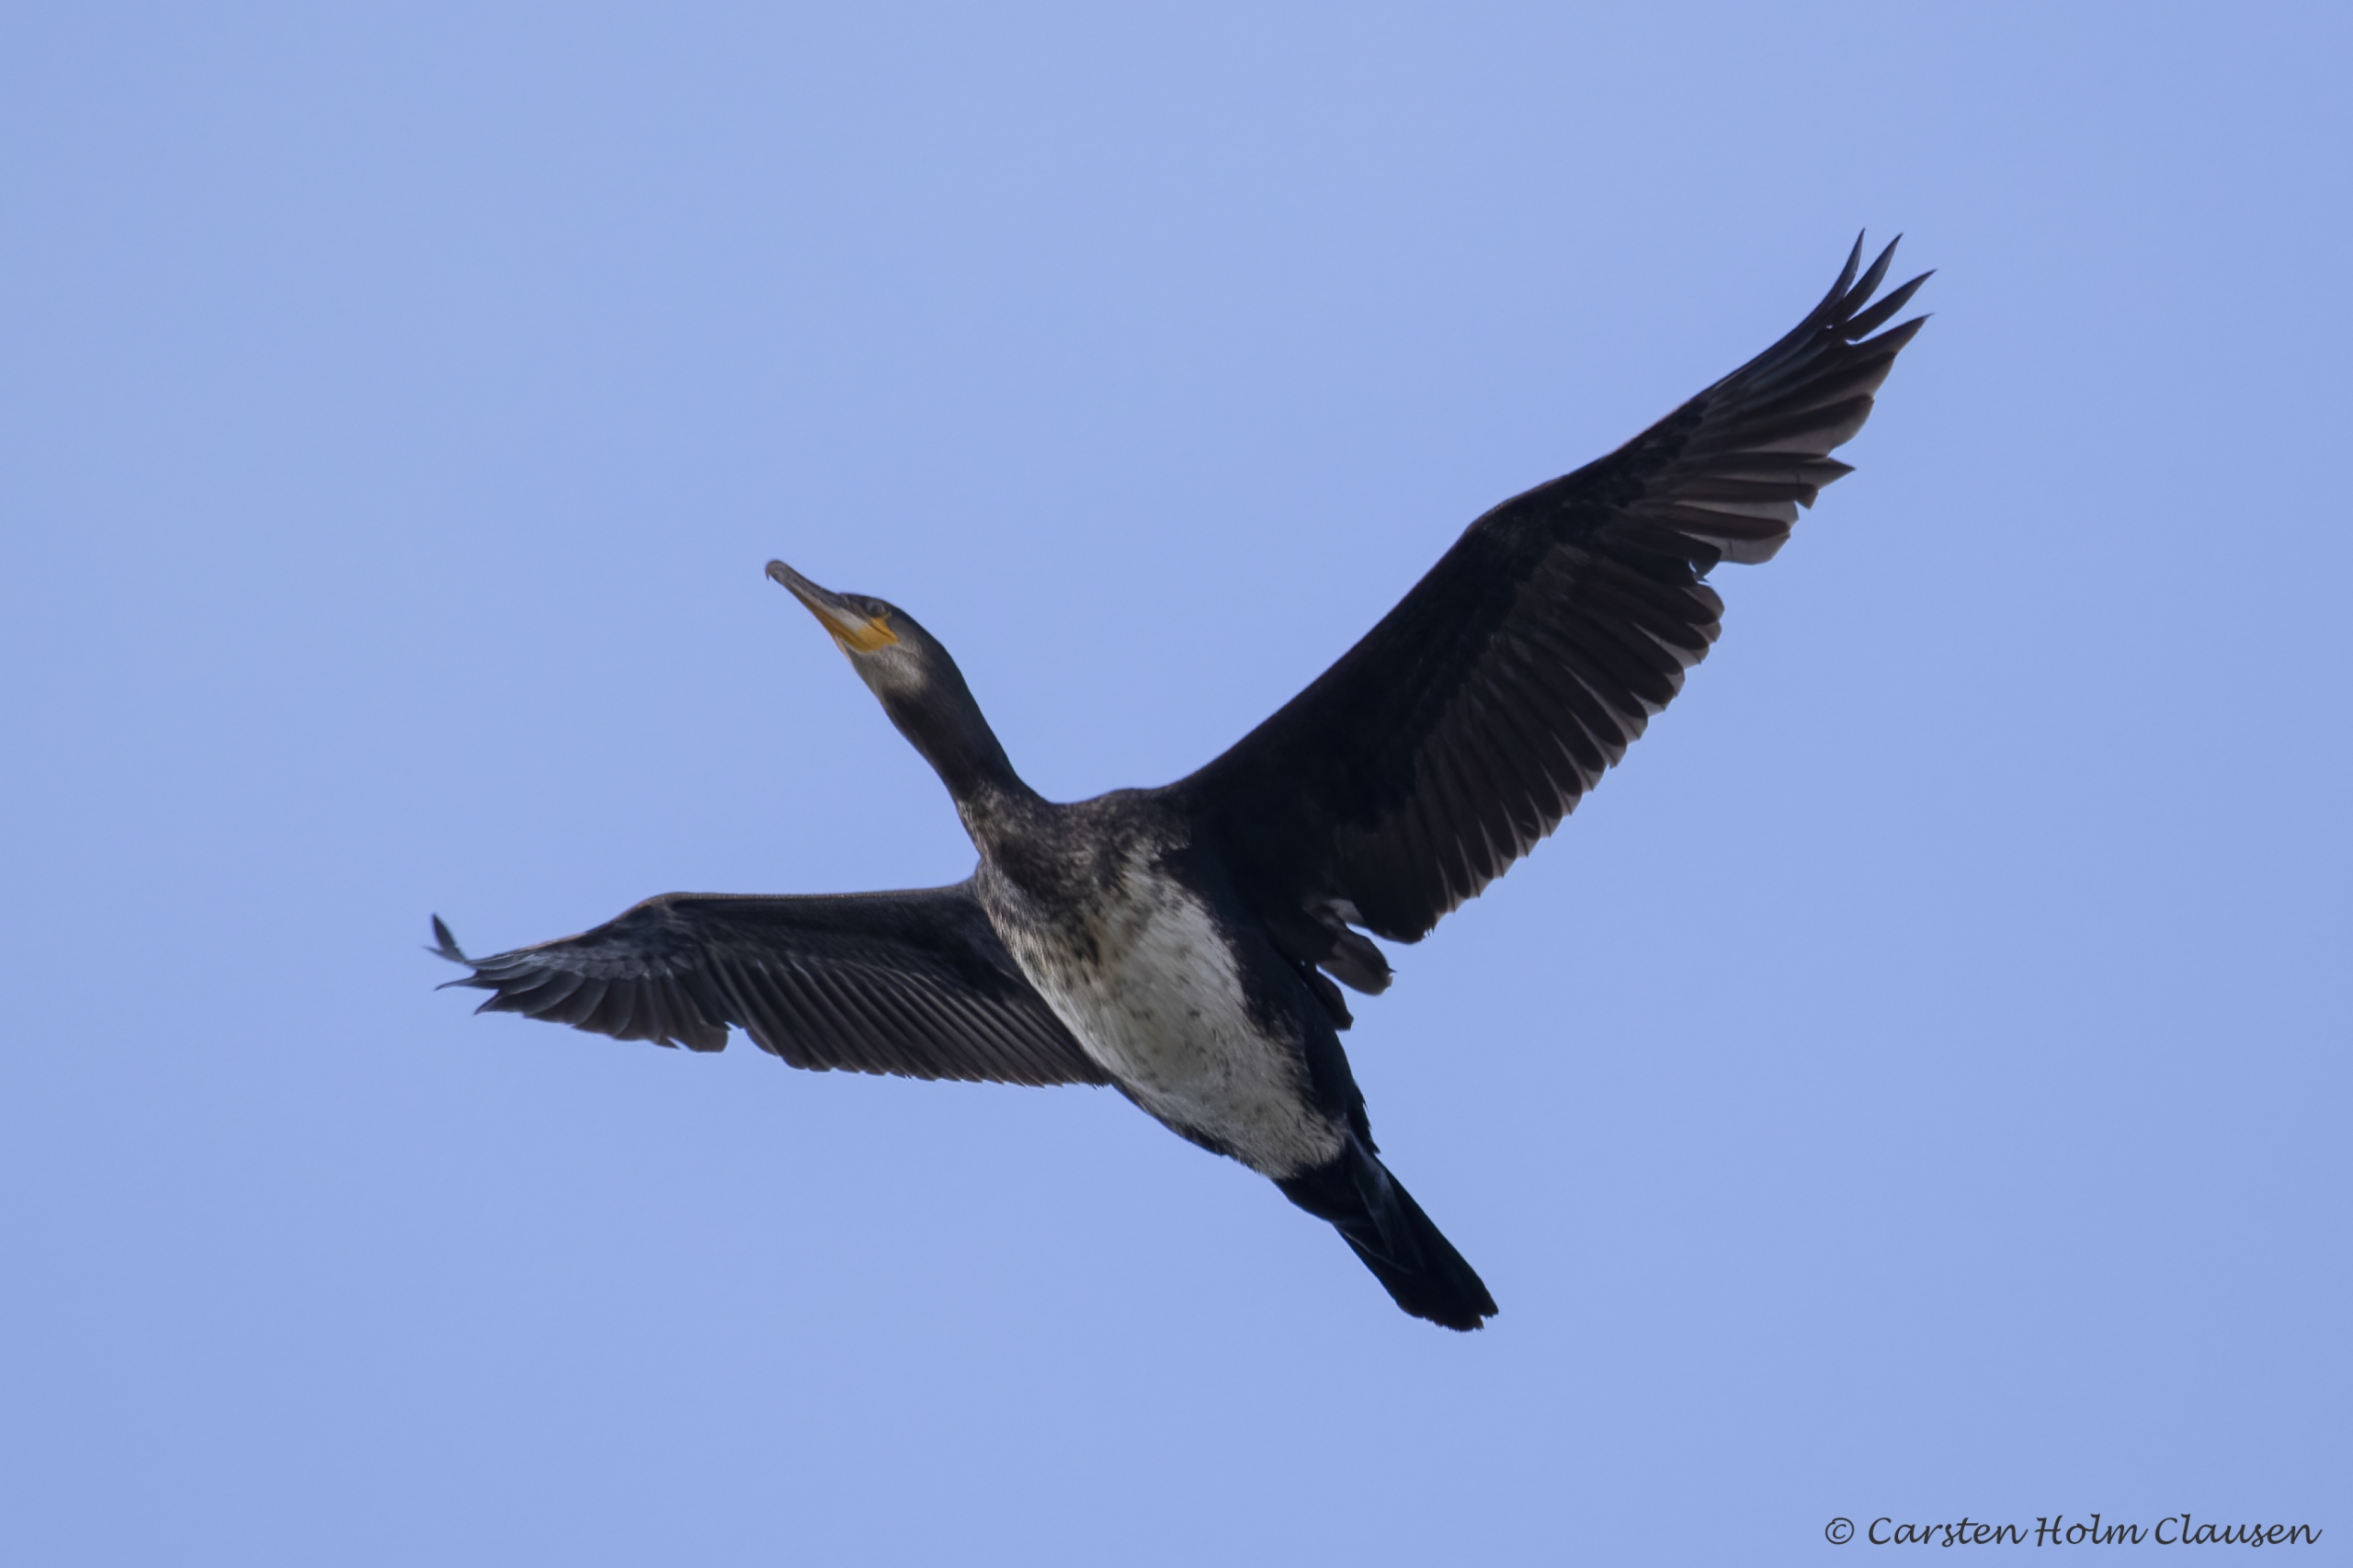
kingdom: Animalia
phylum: Chordata
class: Aves
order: Suliformes
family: Phalacrocoracidae
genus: Phalacrocorax
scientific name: Phalacrocorax carbo
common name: Skarv
